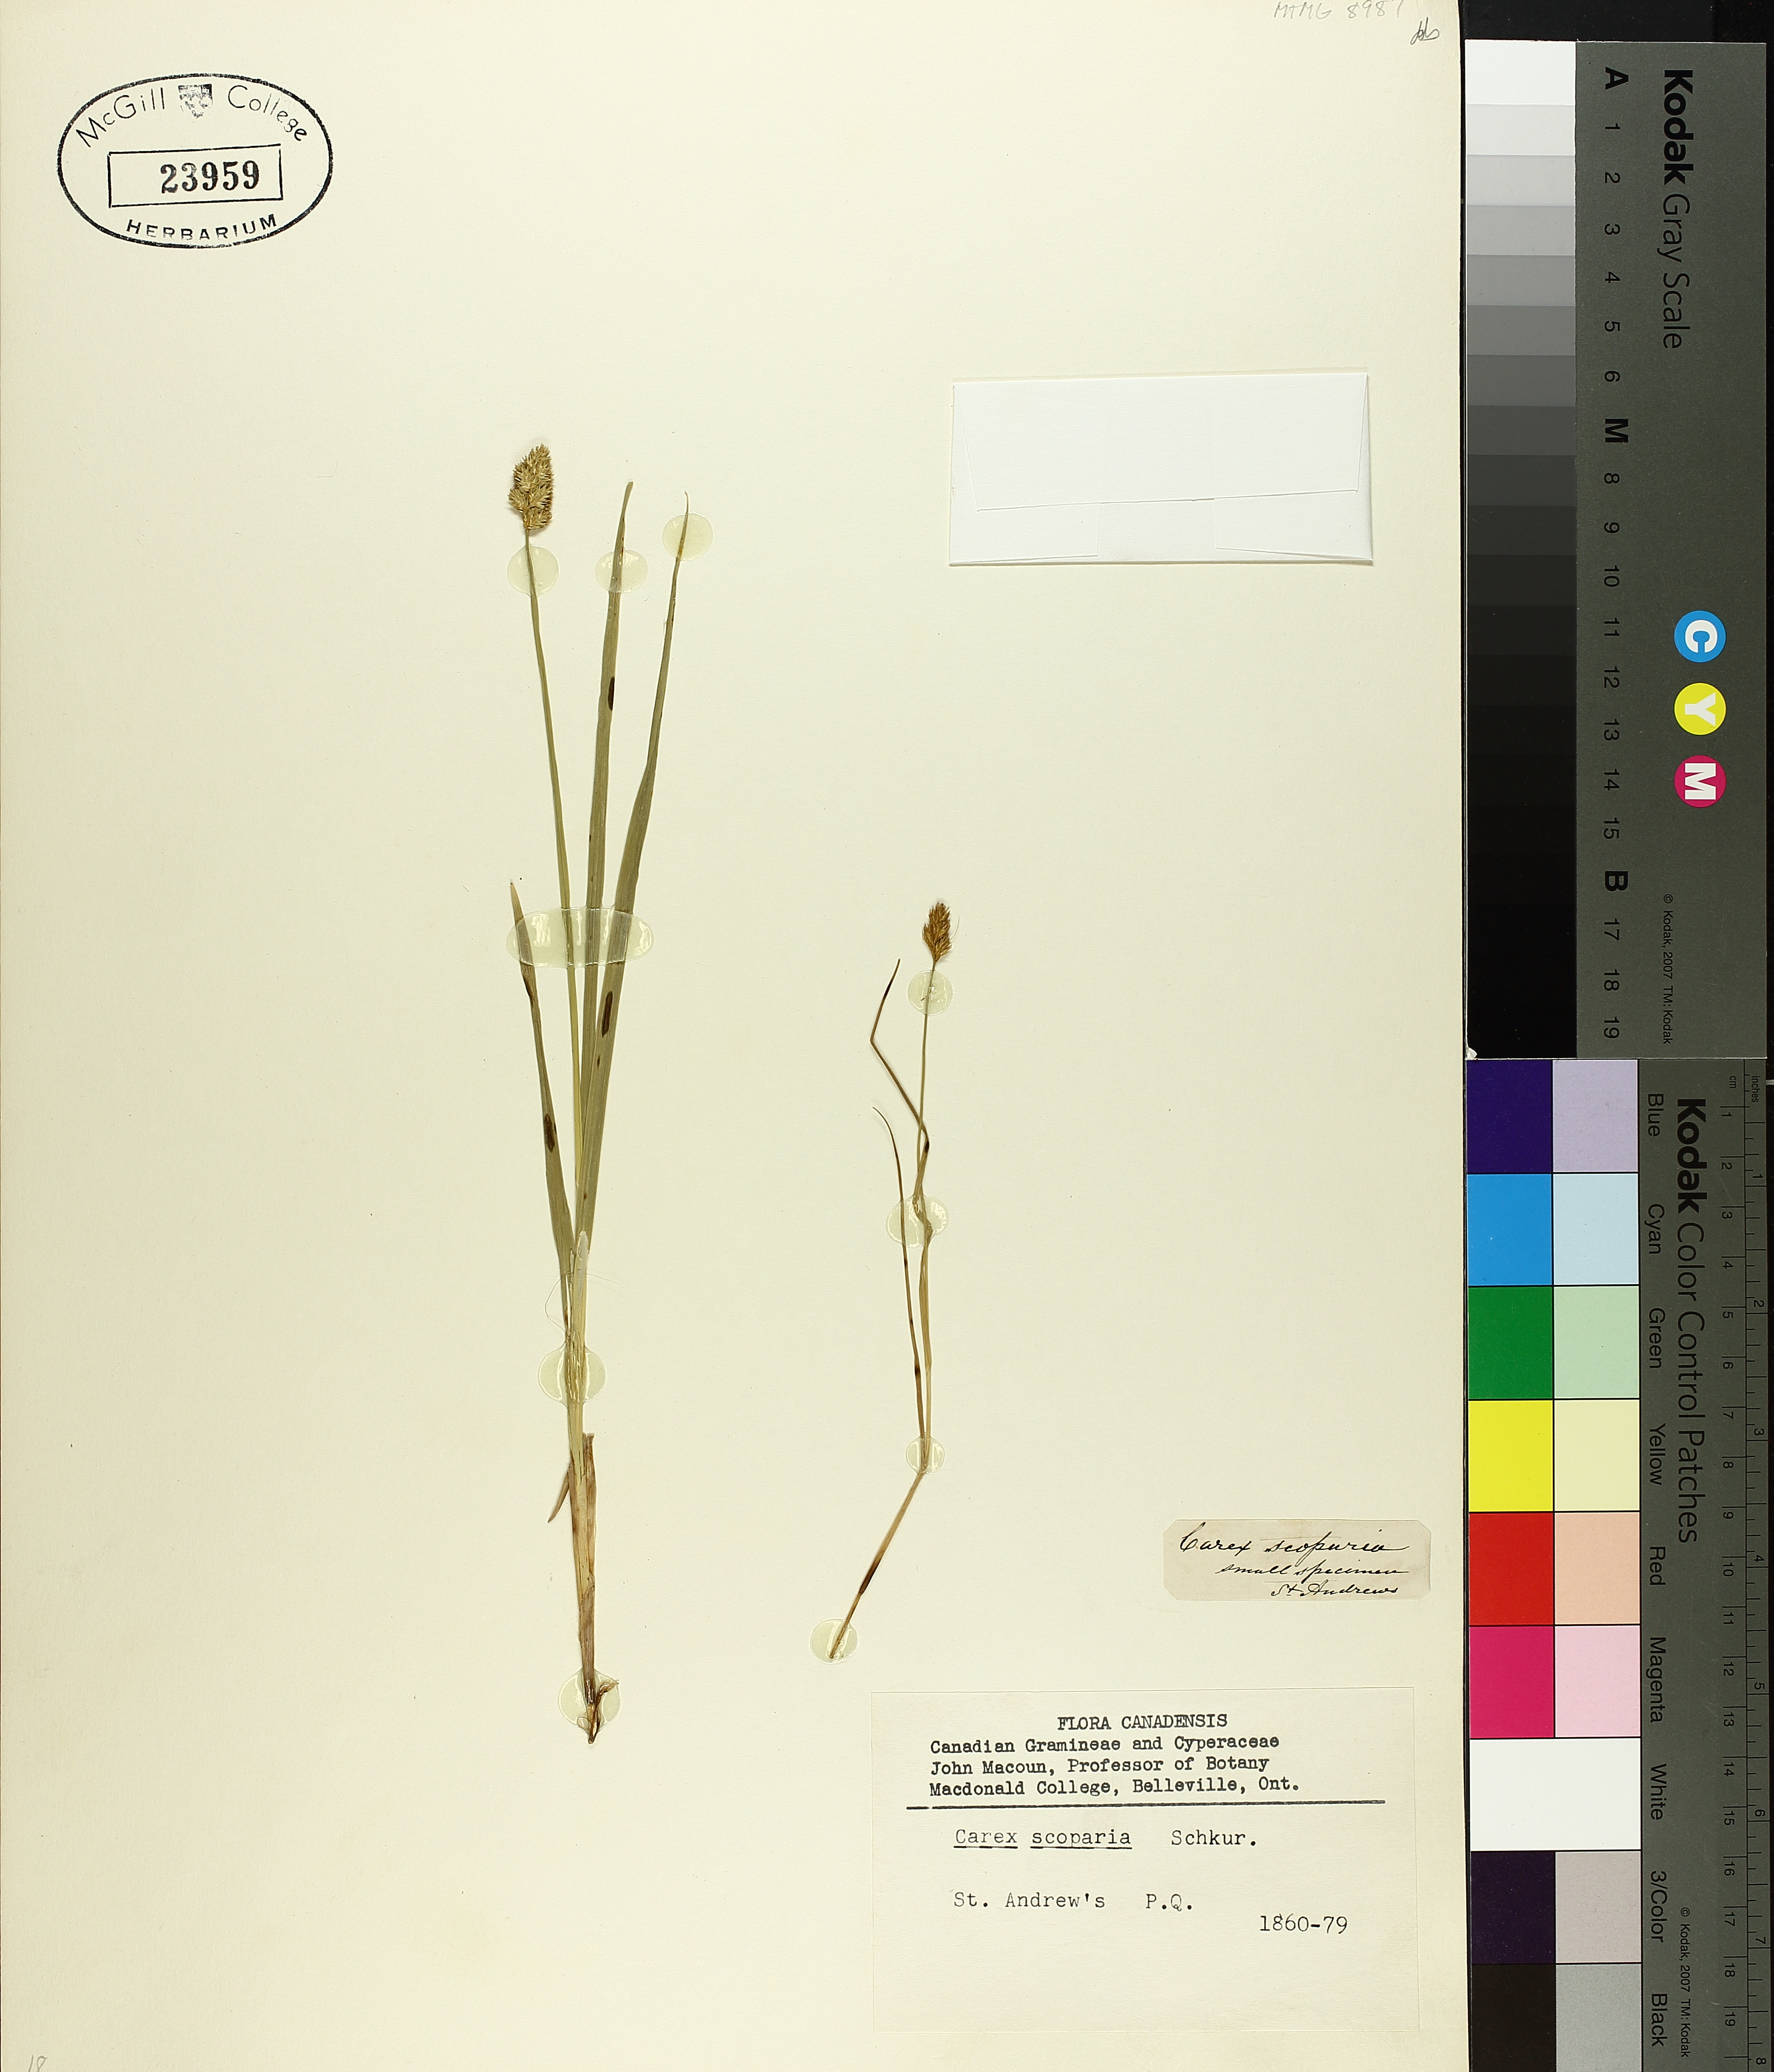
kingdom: Plantae
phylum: Tracheophyta
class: Liliopsida
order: Poales
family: Cyperaceae
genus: Carex
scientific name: Carex scoparia
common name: Broom sedge
